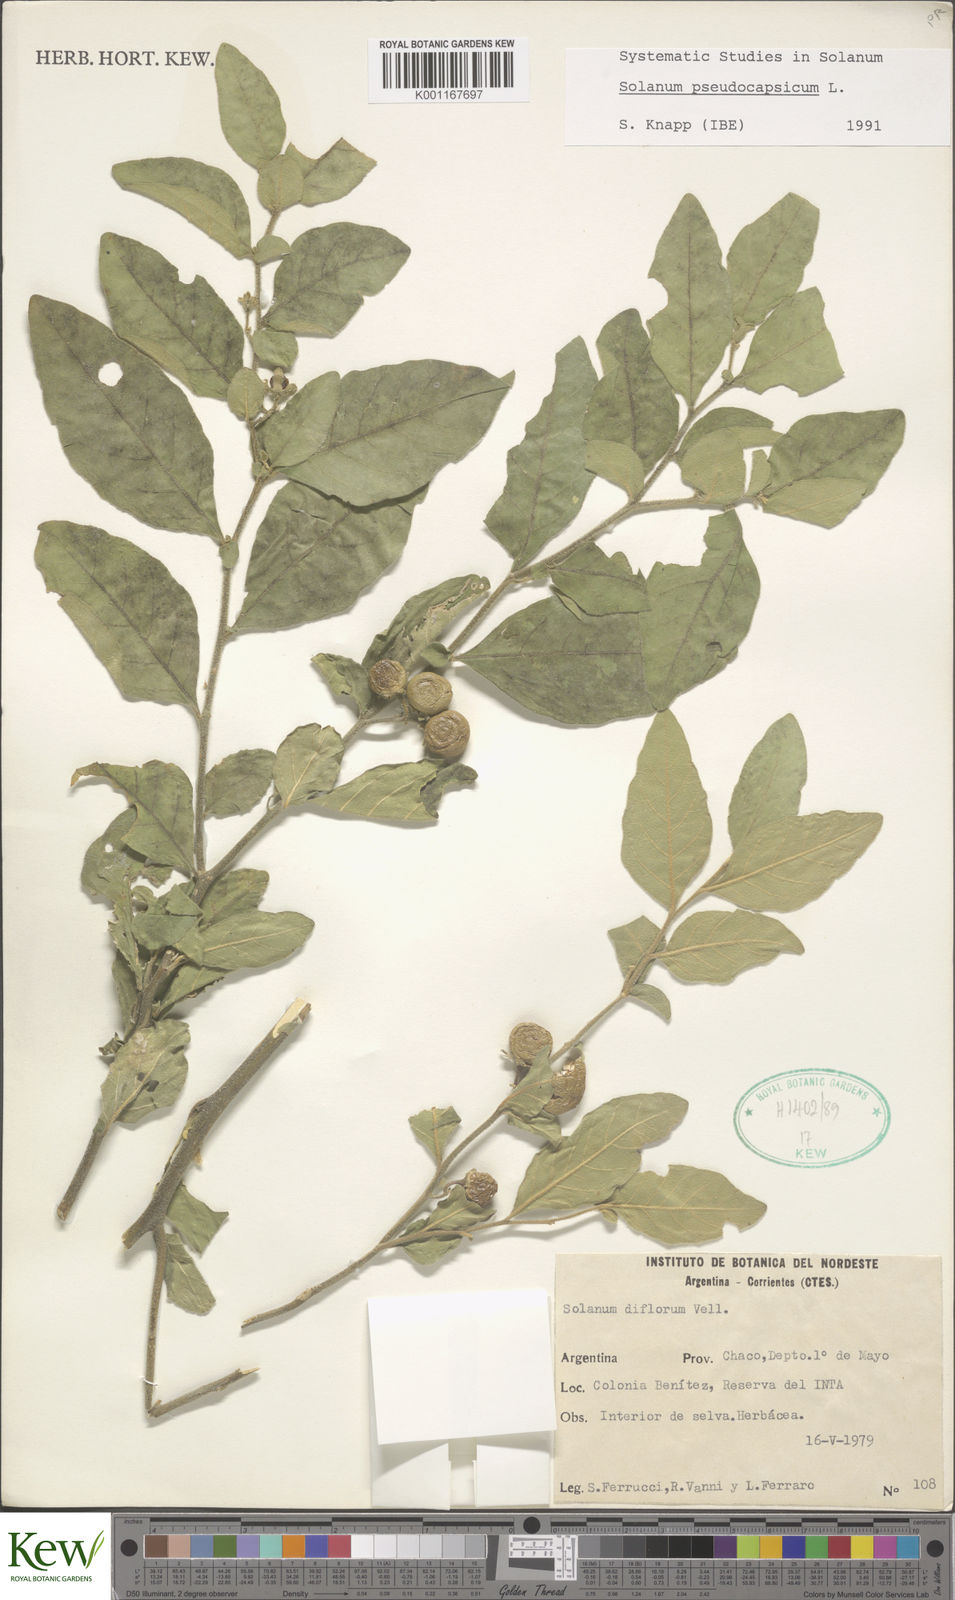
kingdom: Plantae
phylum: Tracheophyta
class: Magnoliopsida
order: Solanales
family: Solanaceae
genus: Solanum
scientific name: Solanum pseudocapsicum
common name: Jerusalem cherry
